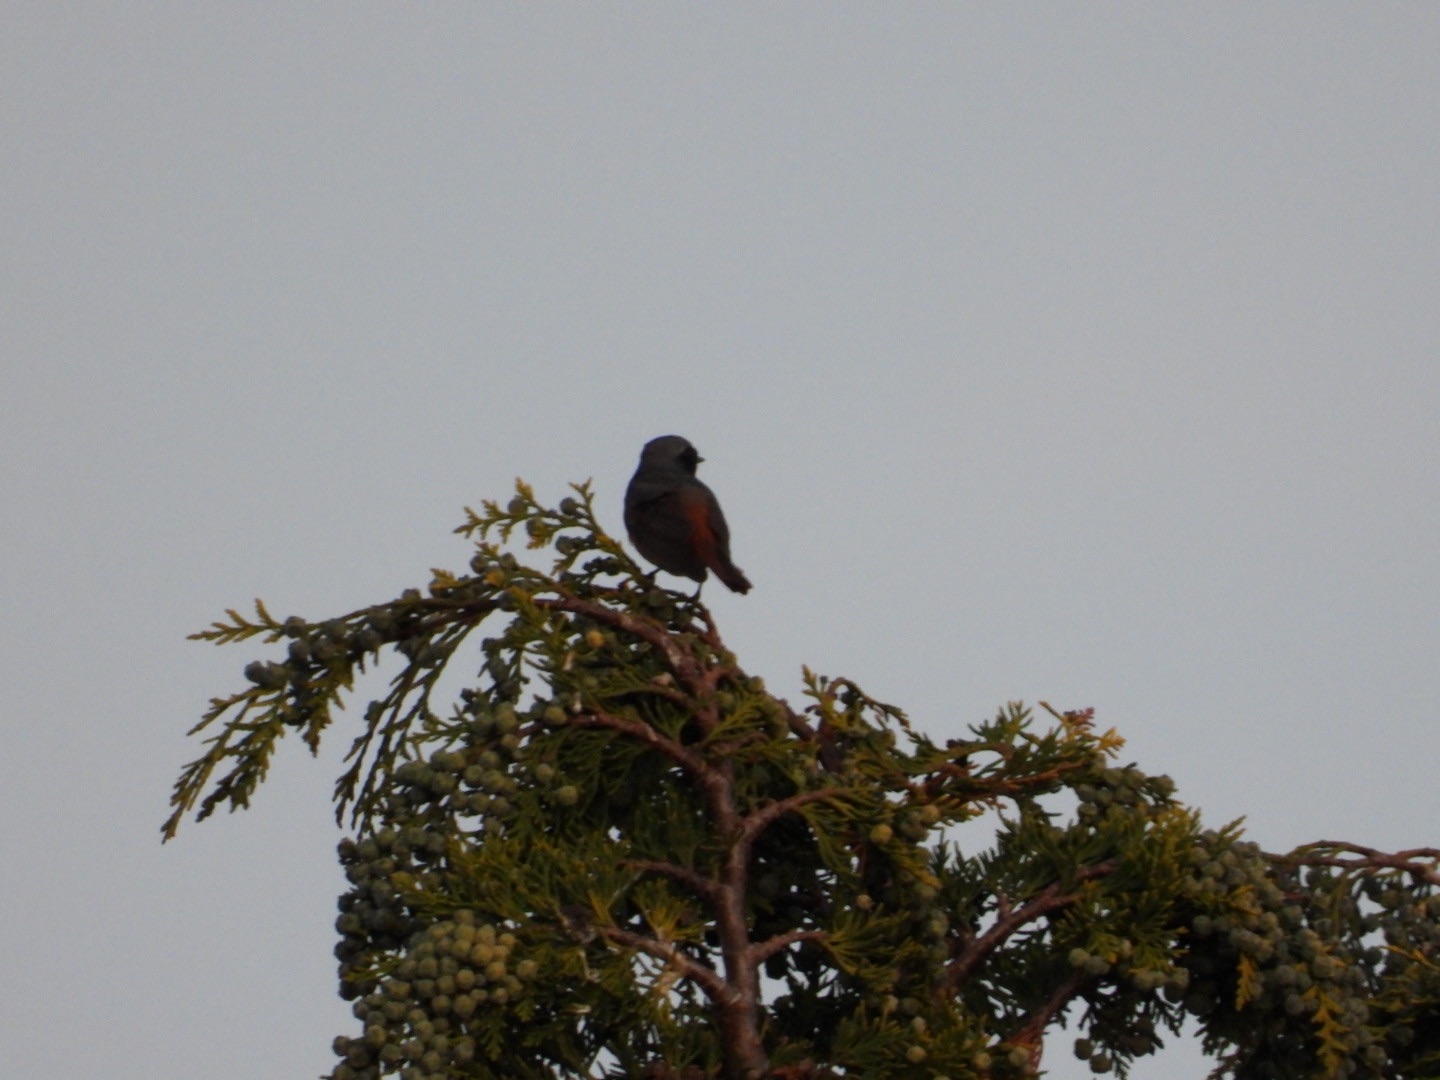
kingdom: Animalia
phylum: Chordata
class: Aves
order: Passeriformes
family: Muscicapidae
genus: Phoenicurus
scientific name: Phoenicurus phoenicurus
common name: Rødstjert
